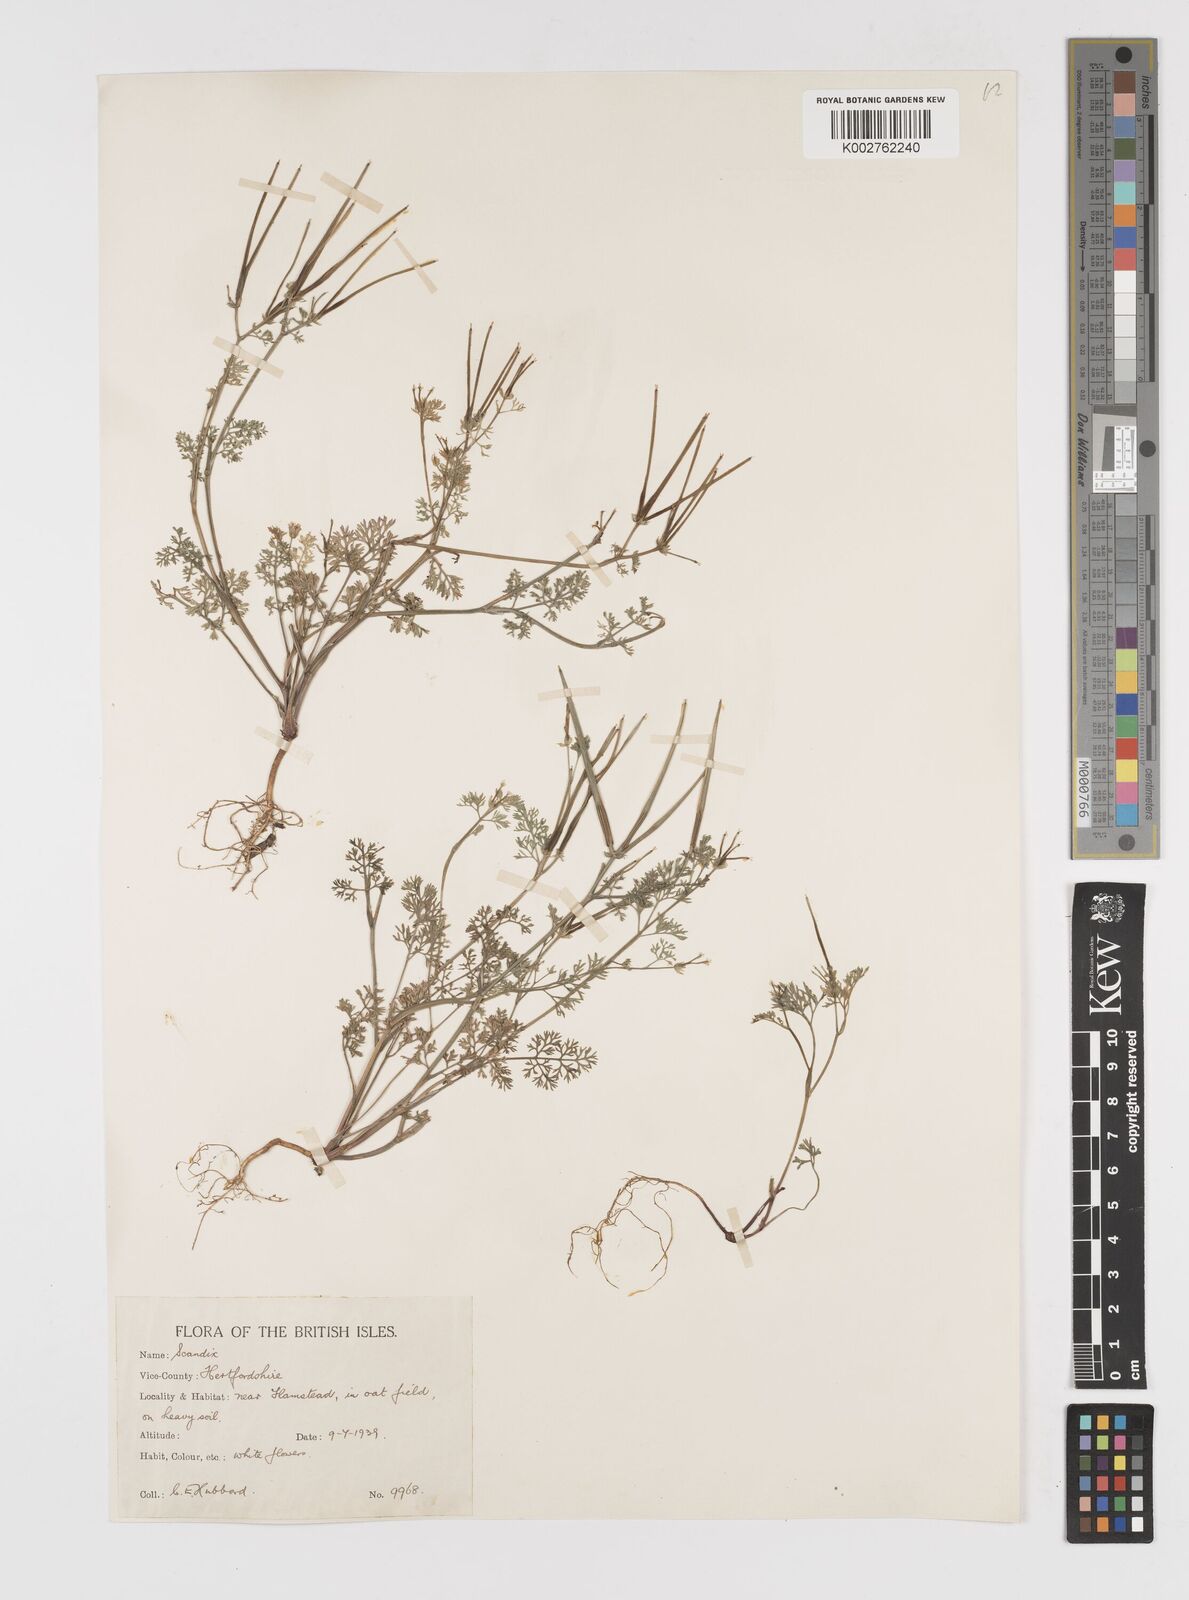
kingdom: Plantae
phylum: Tracheophyta
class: Magnoliopsida
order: Apiales
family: Apiaceae
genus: Scandix
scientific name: Scandix pecten-veneris
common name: Shepherd's-needle
